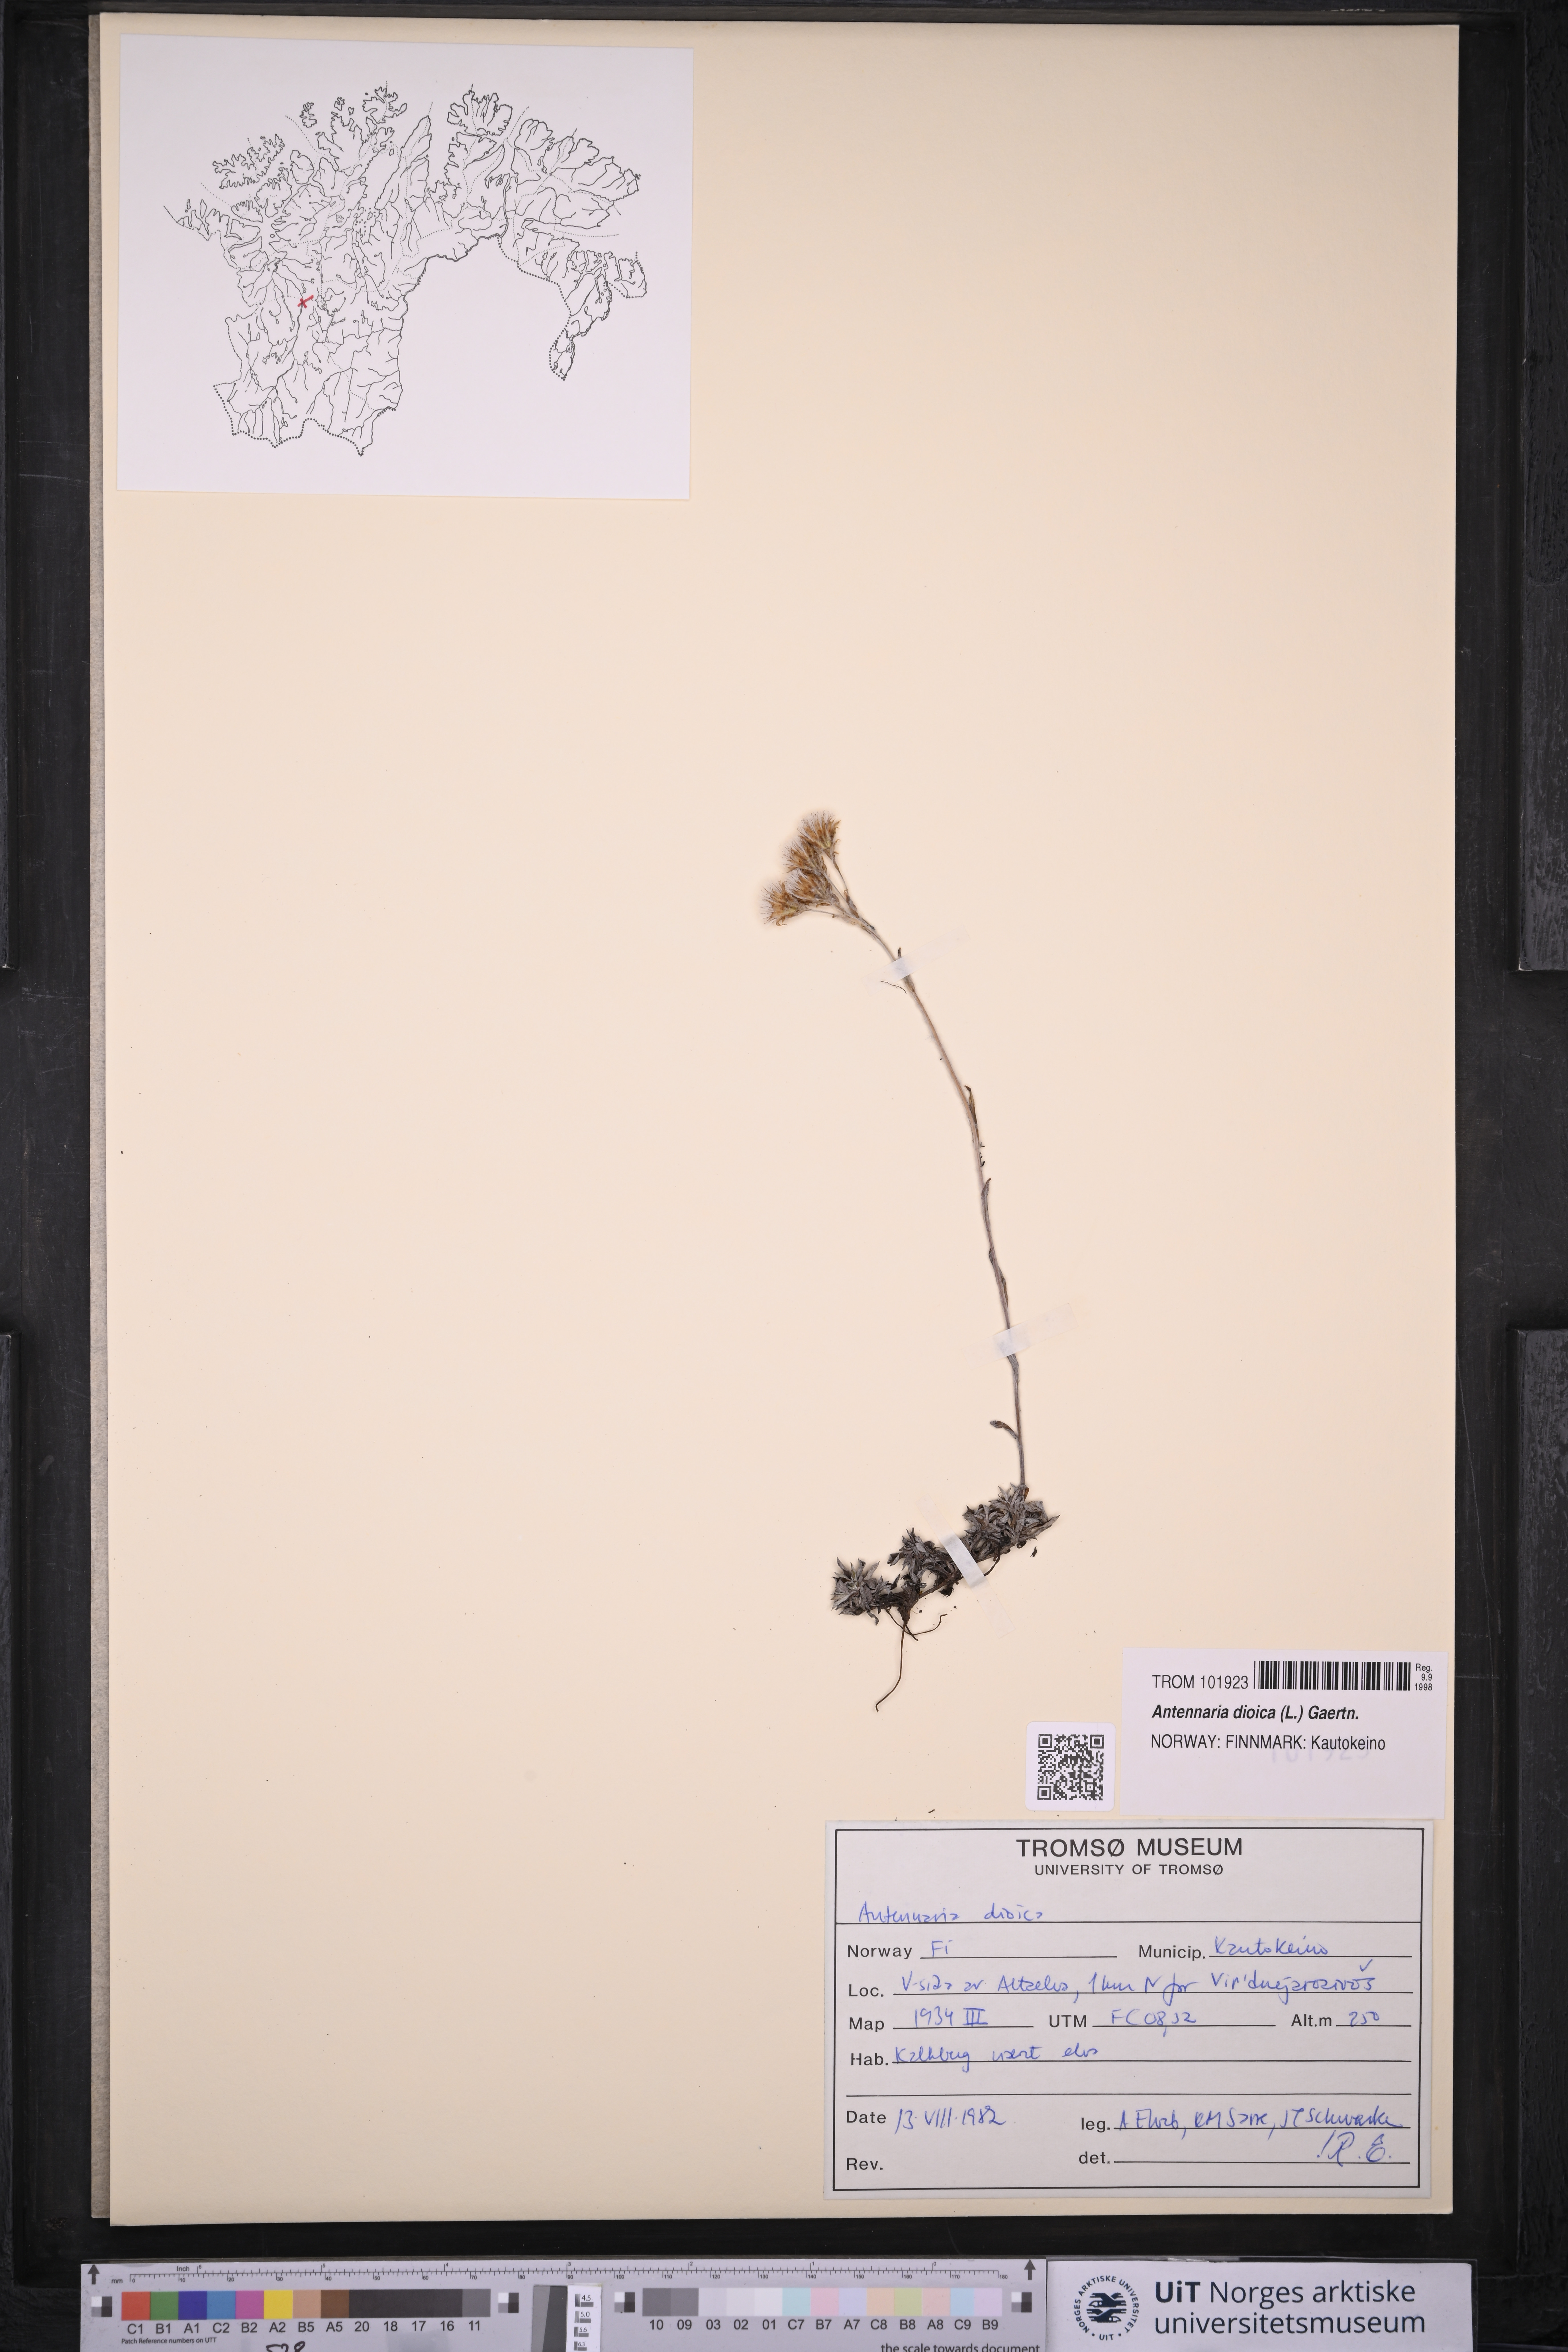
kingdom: Plantae
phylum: Tracheophyta
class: Magnoliopsida
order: Asterales
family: Asteraceae
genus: Antennaria
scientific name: Antennaria dioica
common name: Mountain everlasting
